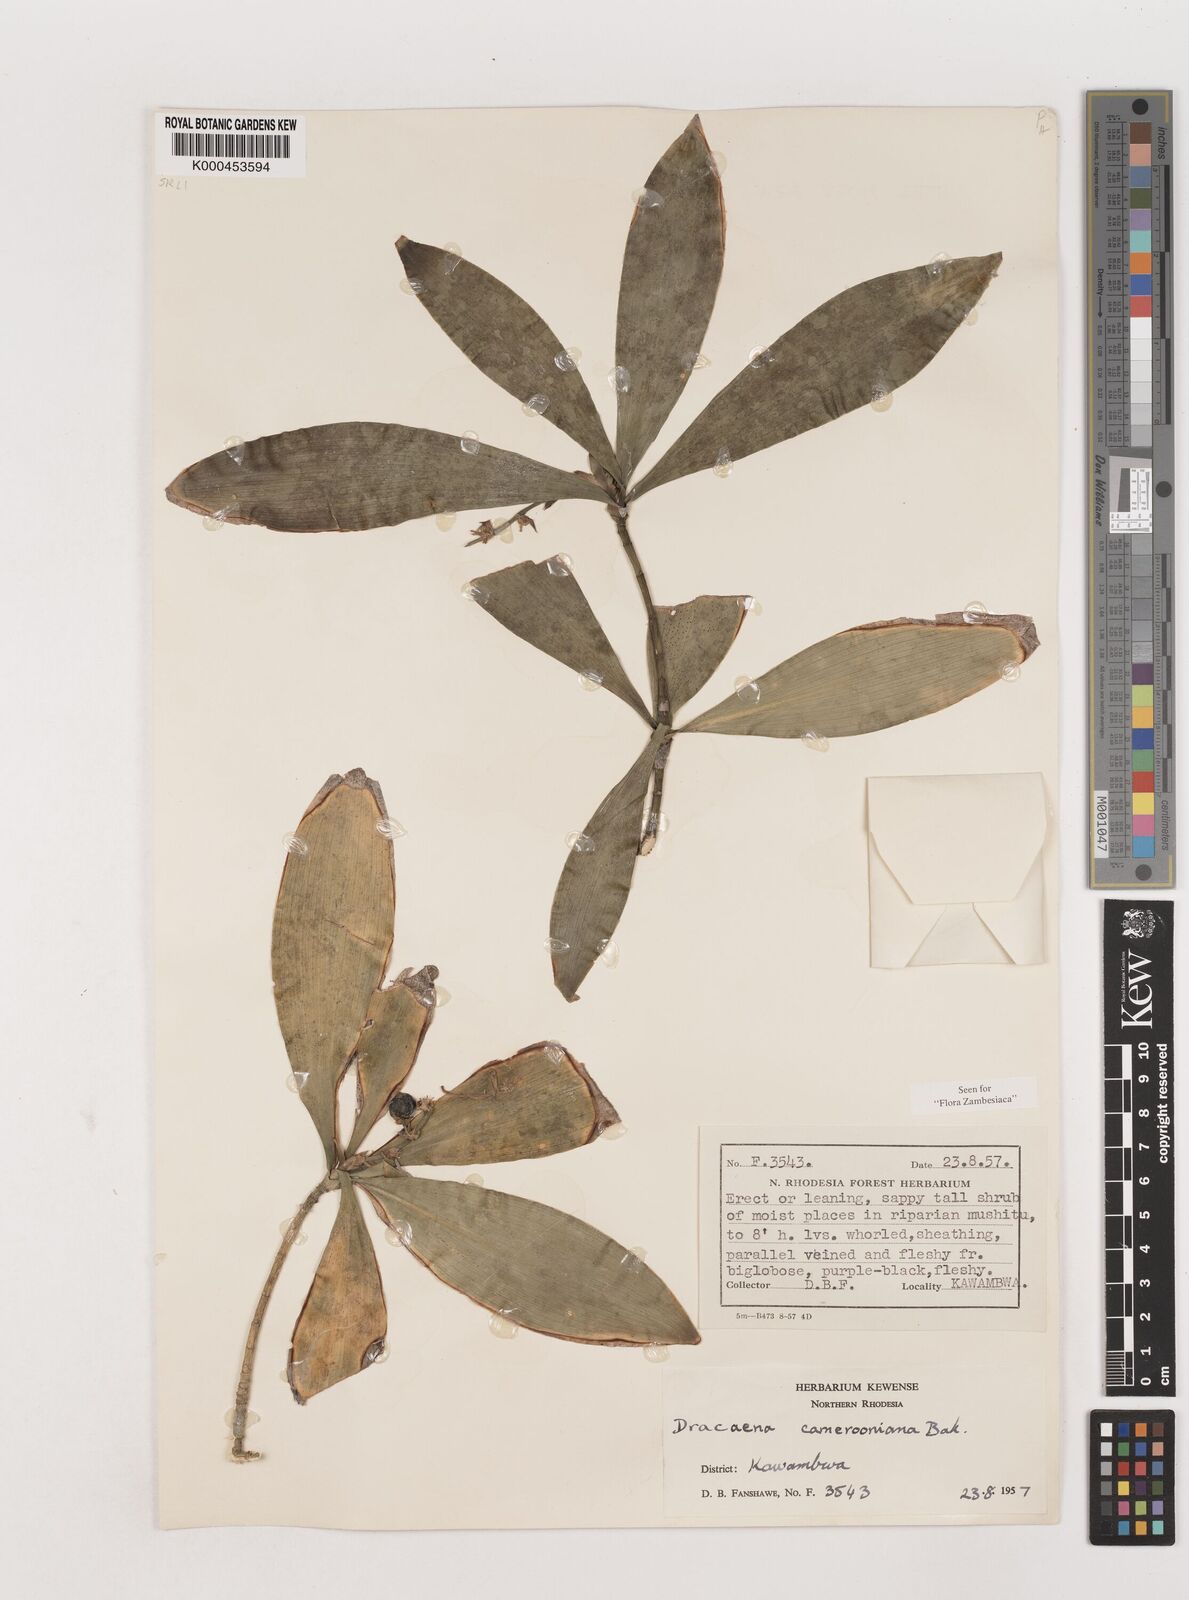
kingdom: Plantae
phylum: Tracheophyta
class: Liliopsida
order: Asparagales
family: Asparagaceae
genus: Dracaena
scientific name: Dracaena camerooniana
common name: Dragon tree
